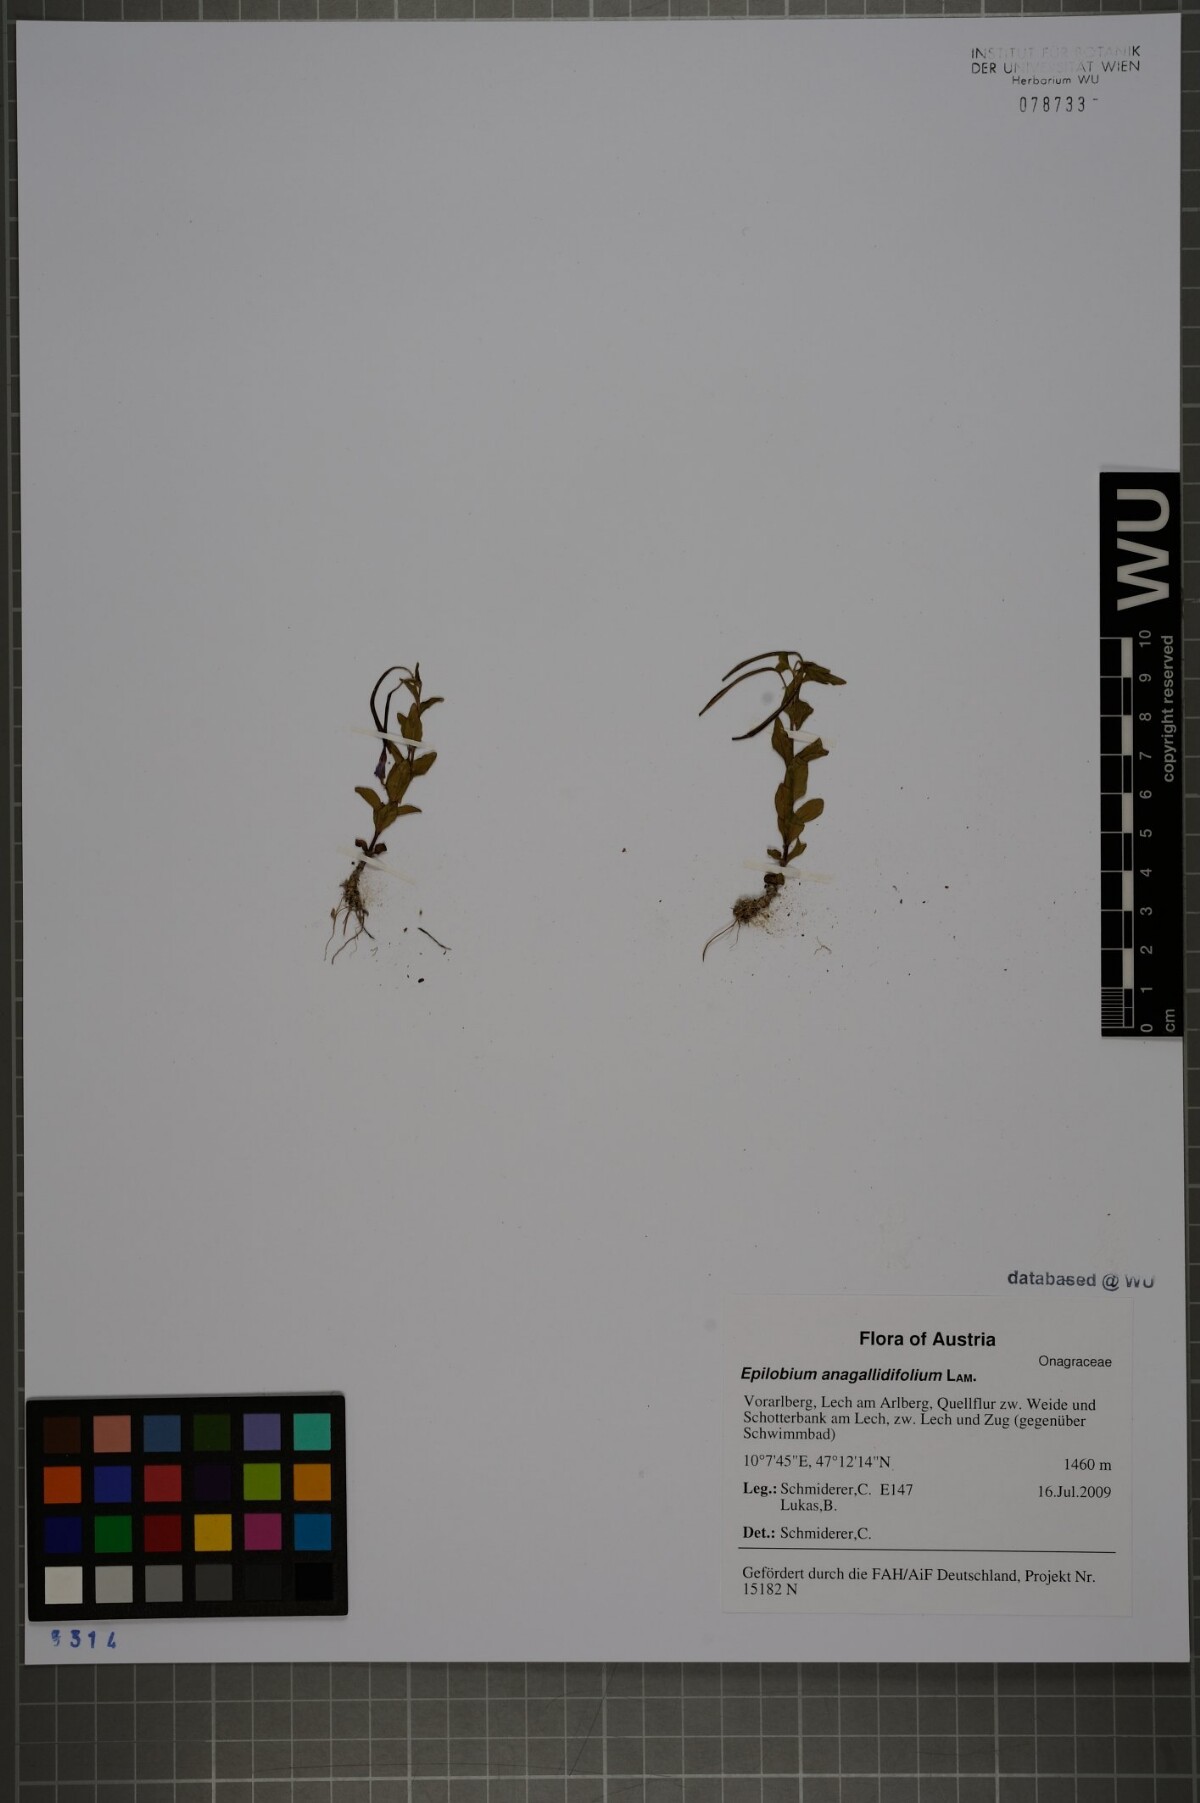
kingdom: Plantae
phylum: Tracheophyta
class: Magnoliopsida
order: Myrtales
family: Onagraceae
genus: Epilobium
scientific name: Epilobium anagallidifolium
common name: Alpine willowherb
